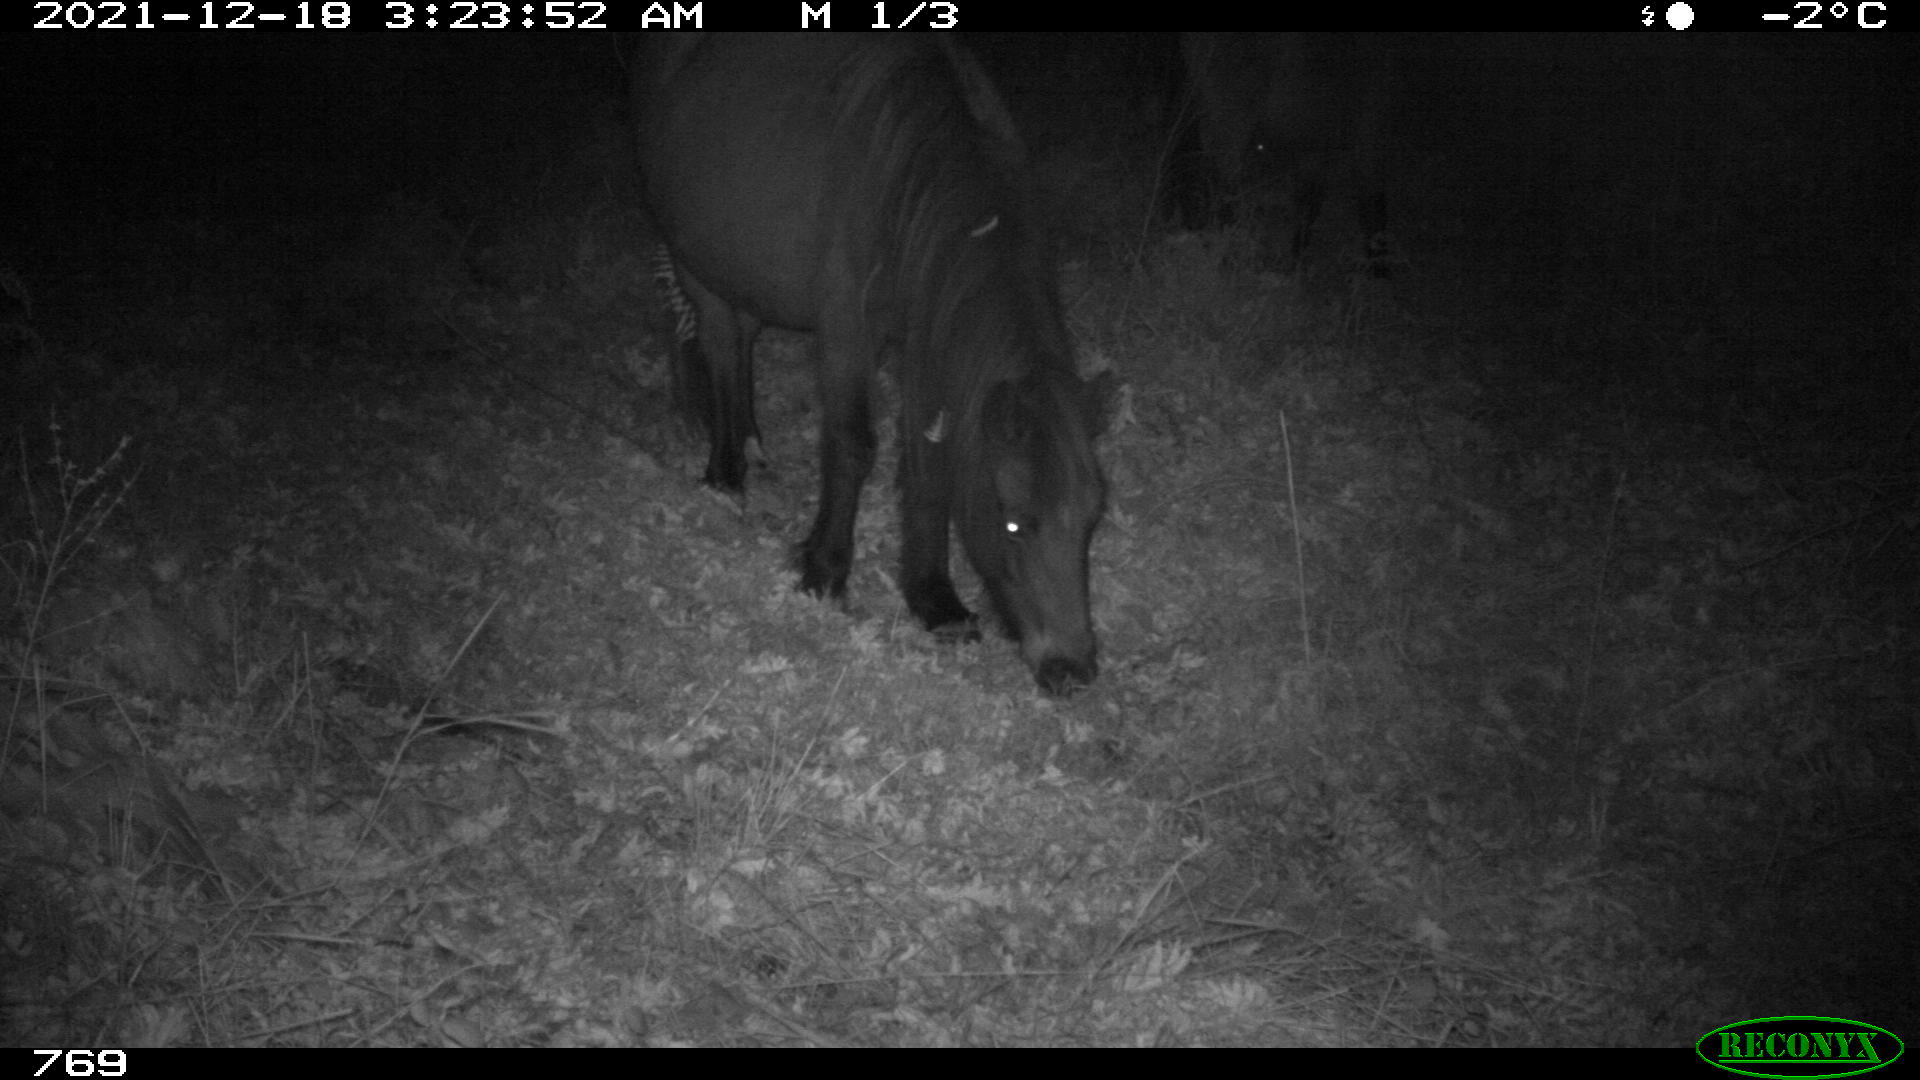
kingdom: Animalia
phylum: Chordata
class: Mammalia
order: Perissodactyla
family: Equidae
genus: Equus
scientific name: Equus caballus
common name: Horse
